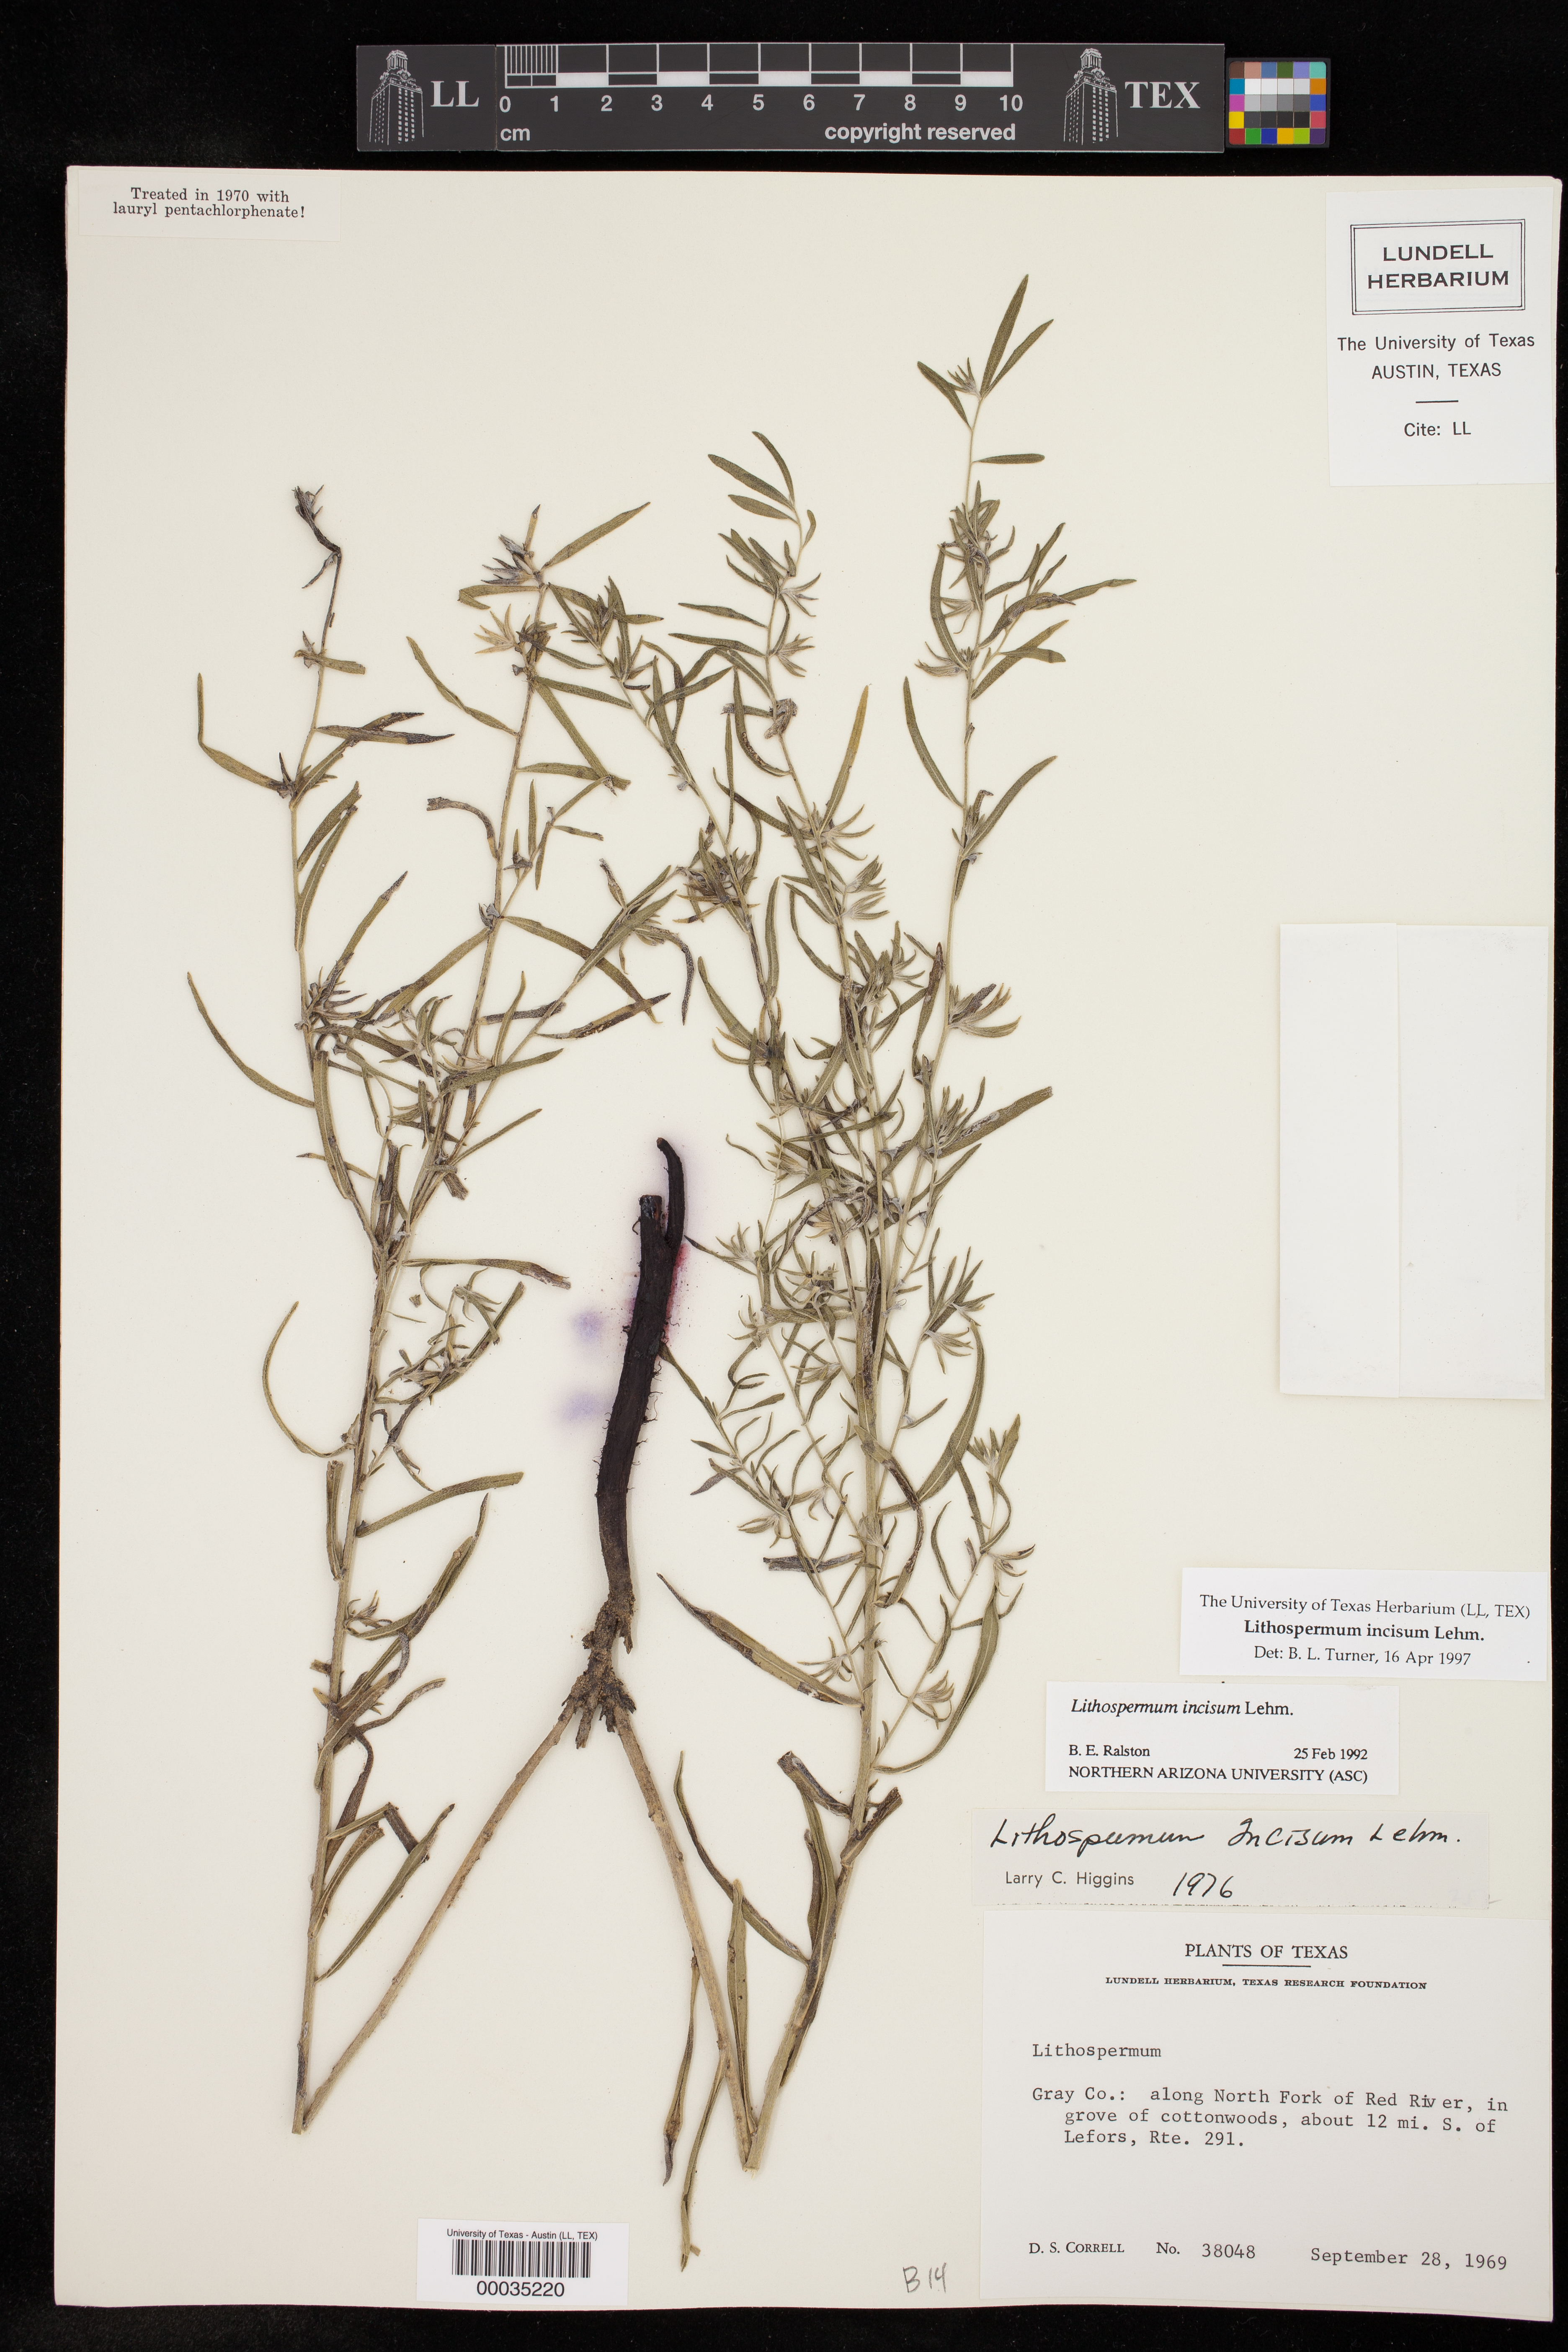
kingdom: Plantae
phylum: Tracheophyta
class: Magnoliopsida
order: Boraginales
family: Boraginaceae
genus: Lithospermum
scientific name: Lithospermum incisum
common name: Fringed gromwell
